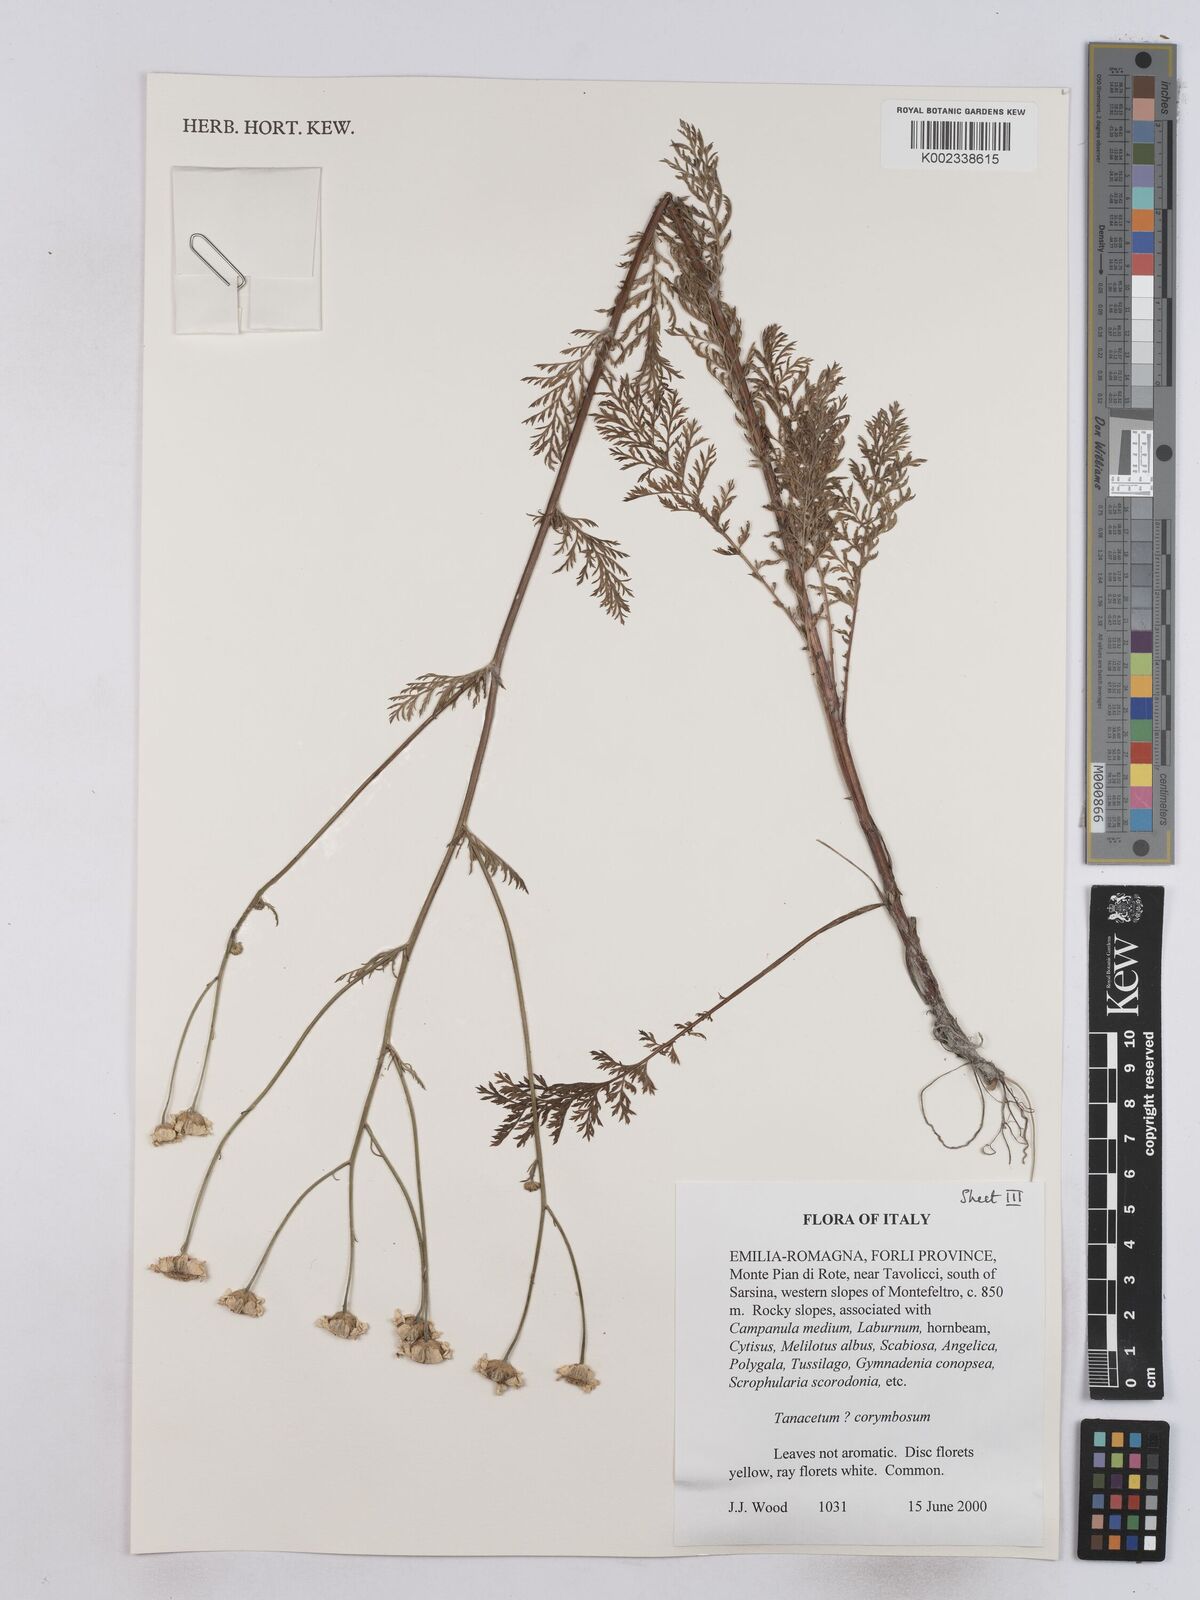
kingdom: Plantae
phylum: Tracheophyta
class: Magnoliopsida
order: Asterales
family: Asteraceae
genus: Tanacetum
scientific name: Tanacetum corymbosum
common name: Scentless feverfew
